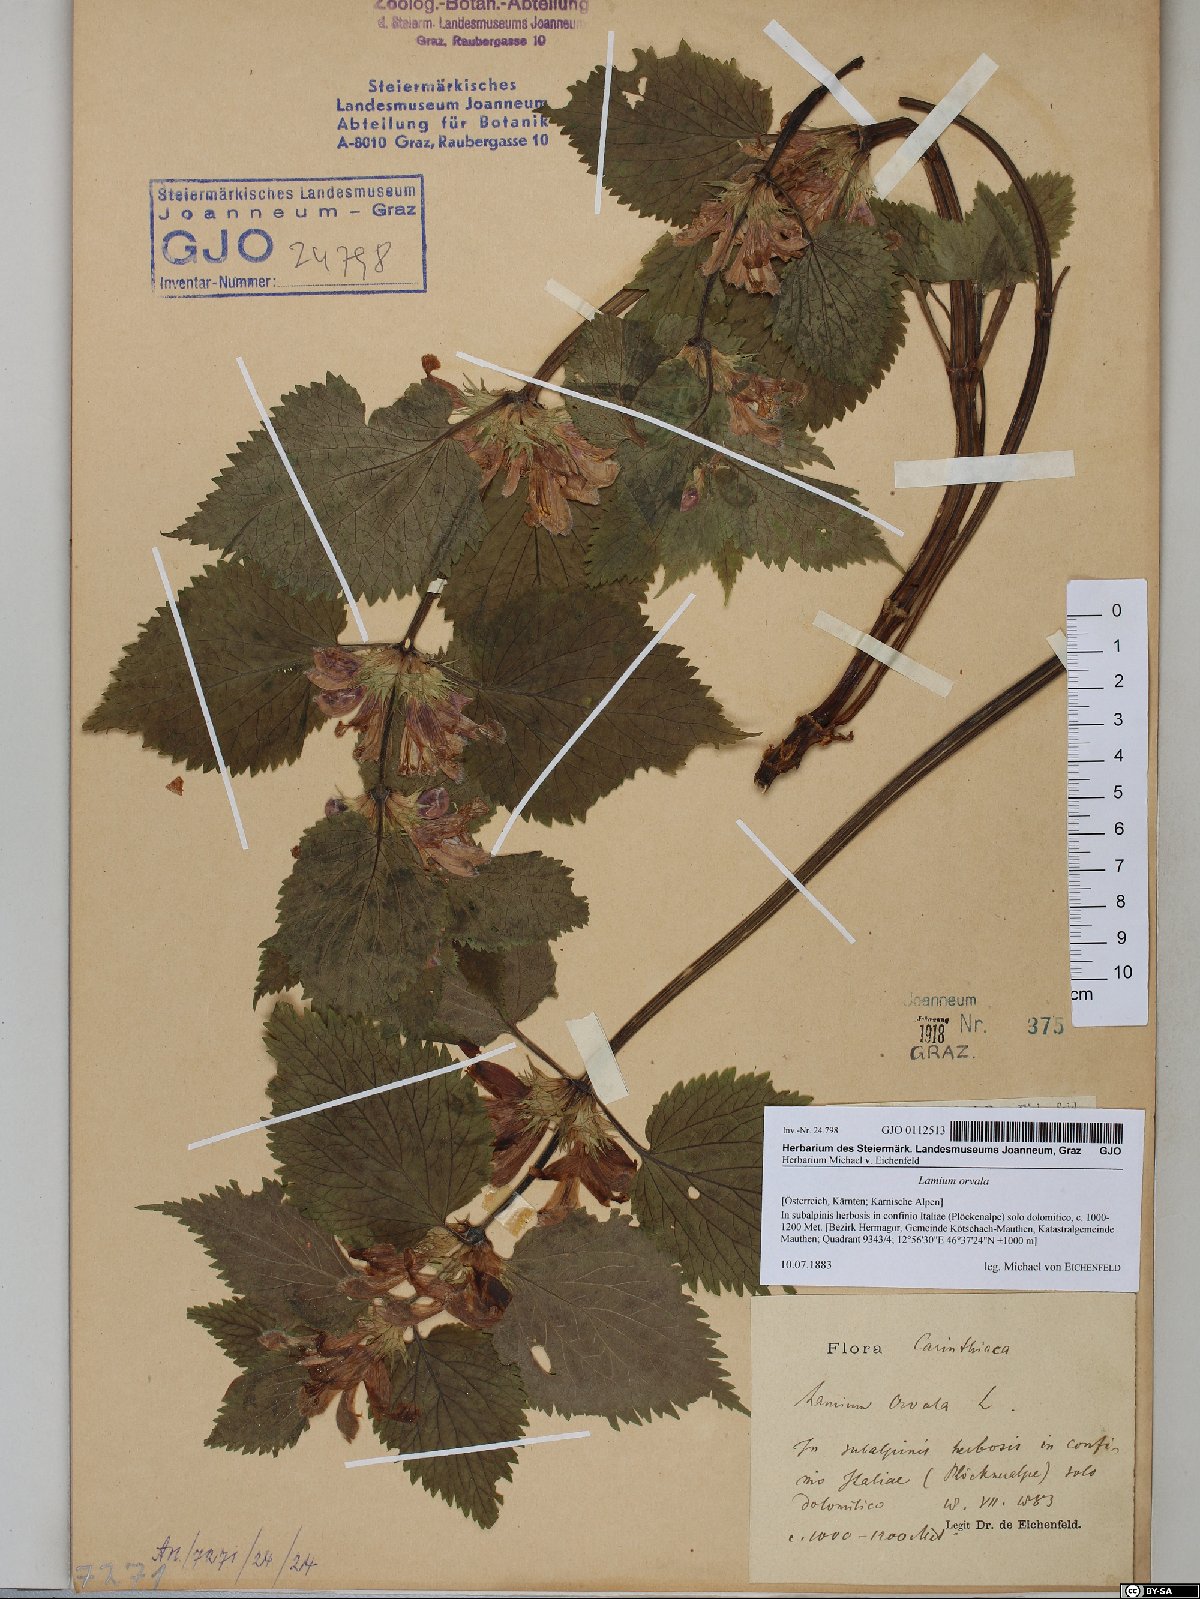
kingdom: Plantae
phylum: Tracheophyta
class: Magnoliopsida
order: Lamiales
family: Lamiaceae
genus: Lamium
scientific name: Lamium orvala
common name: Balm-leaved archangel
